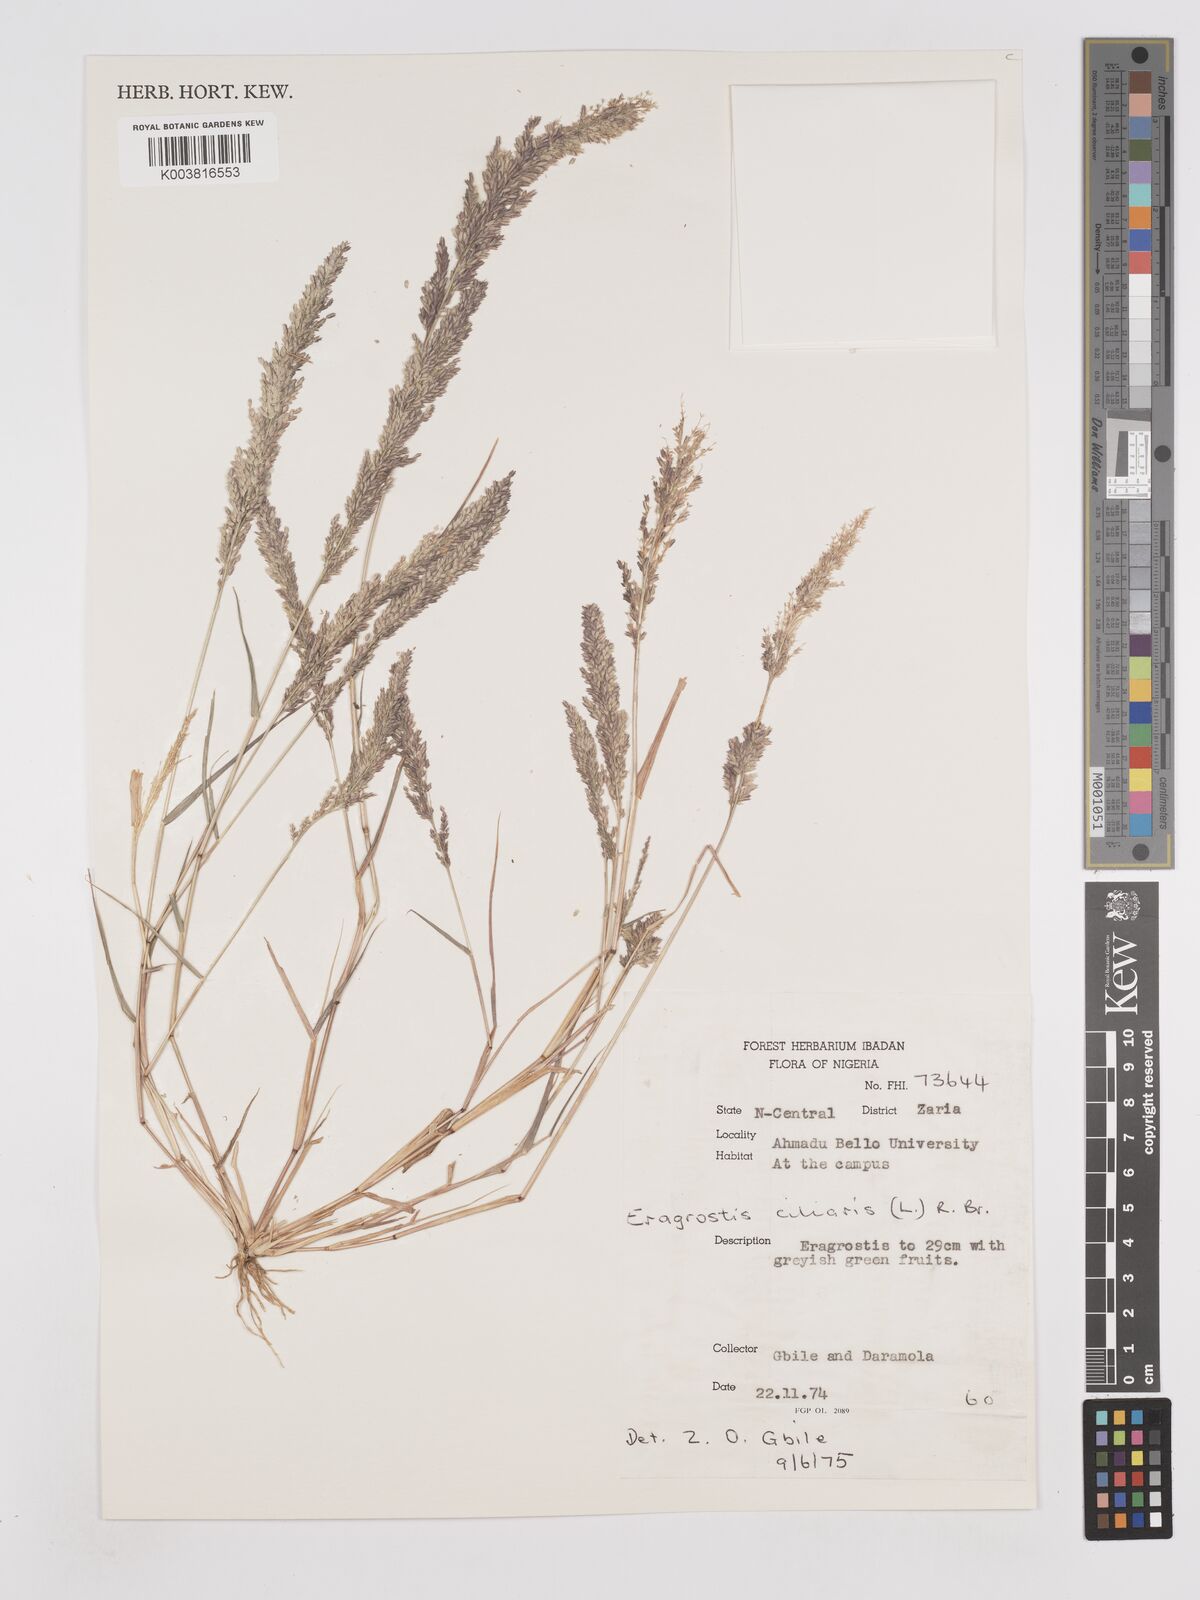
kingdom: Plantae
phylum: Tracheophyta
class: Liliopsida
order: Poales
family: Poaceae
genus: Eragrostis
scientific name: Eragrostis ciliaris
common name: Gophertail lovegrass
